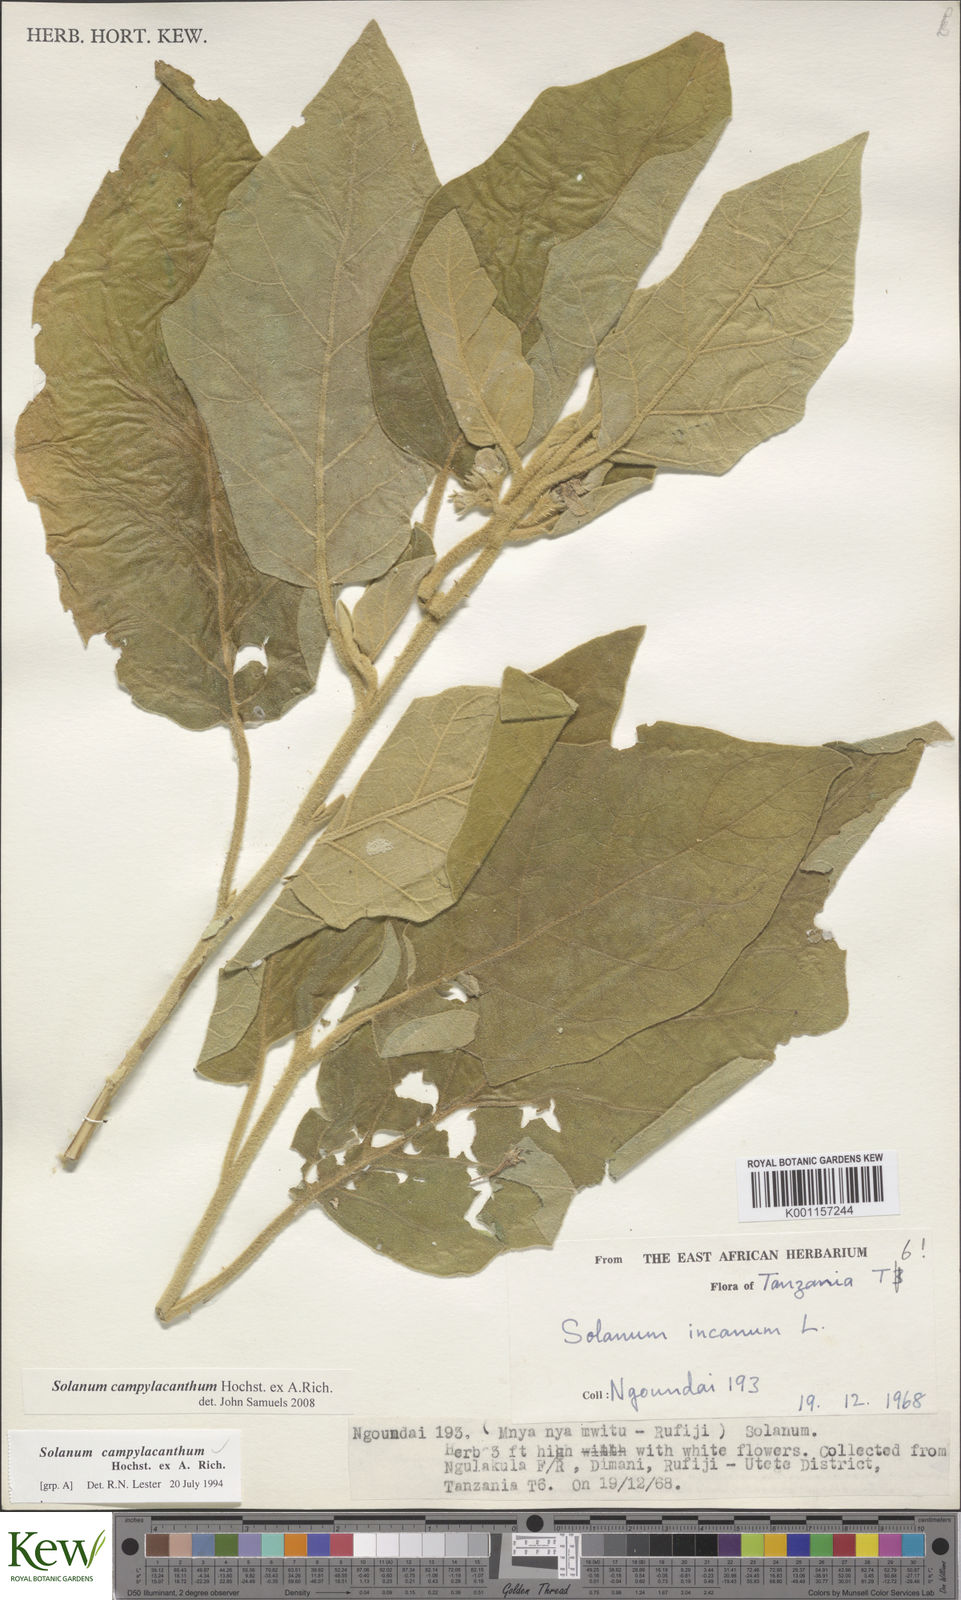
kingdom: Plantae
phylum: Tracheophyta
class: Magnoliopsida
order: Solanales
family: Solanaceae
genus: Solanum
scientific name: Solanum campylacanthum
